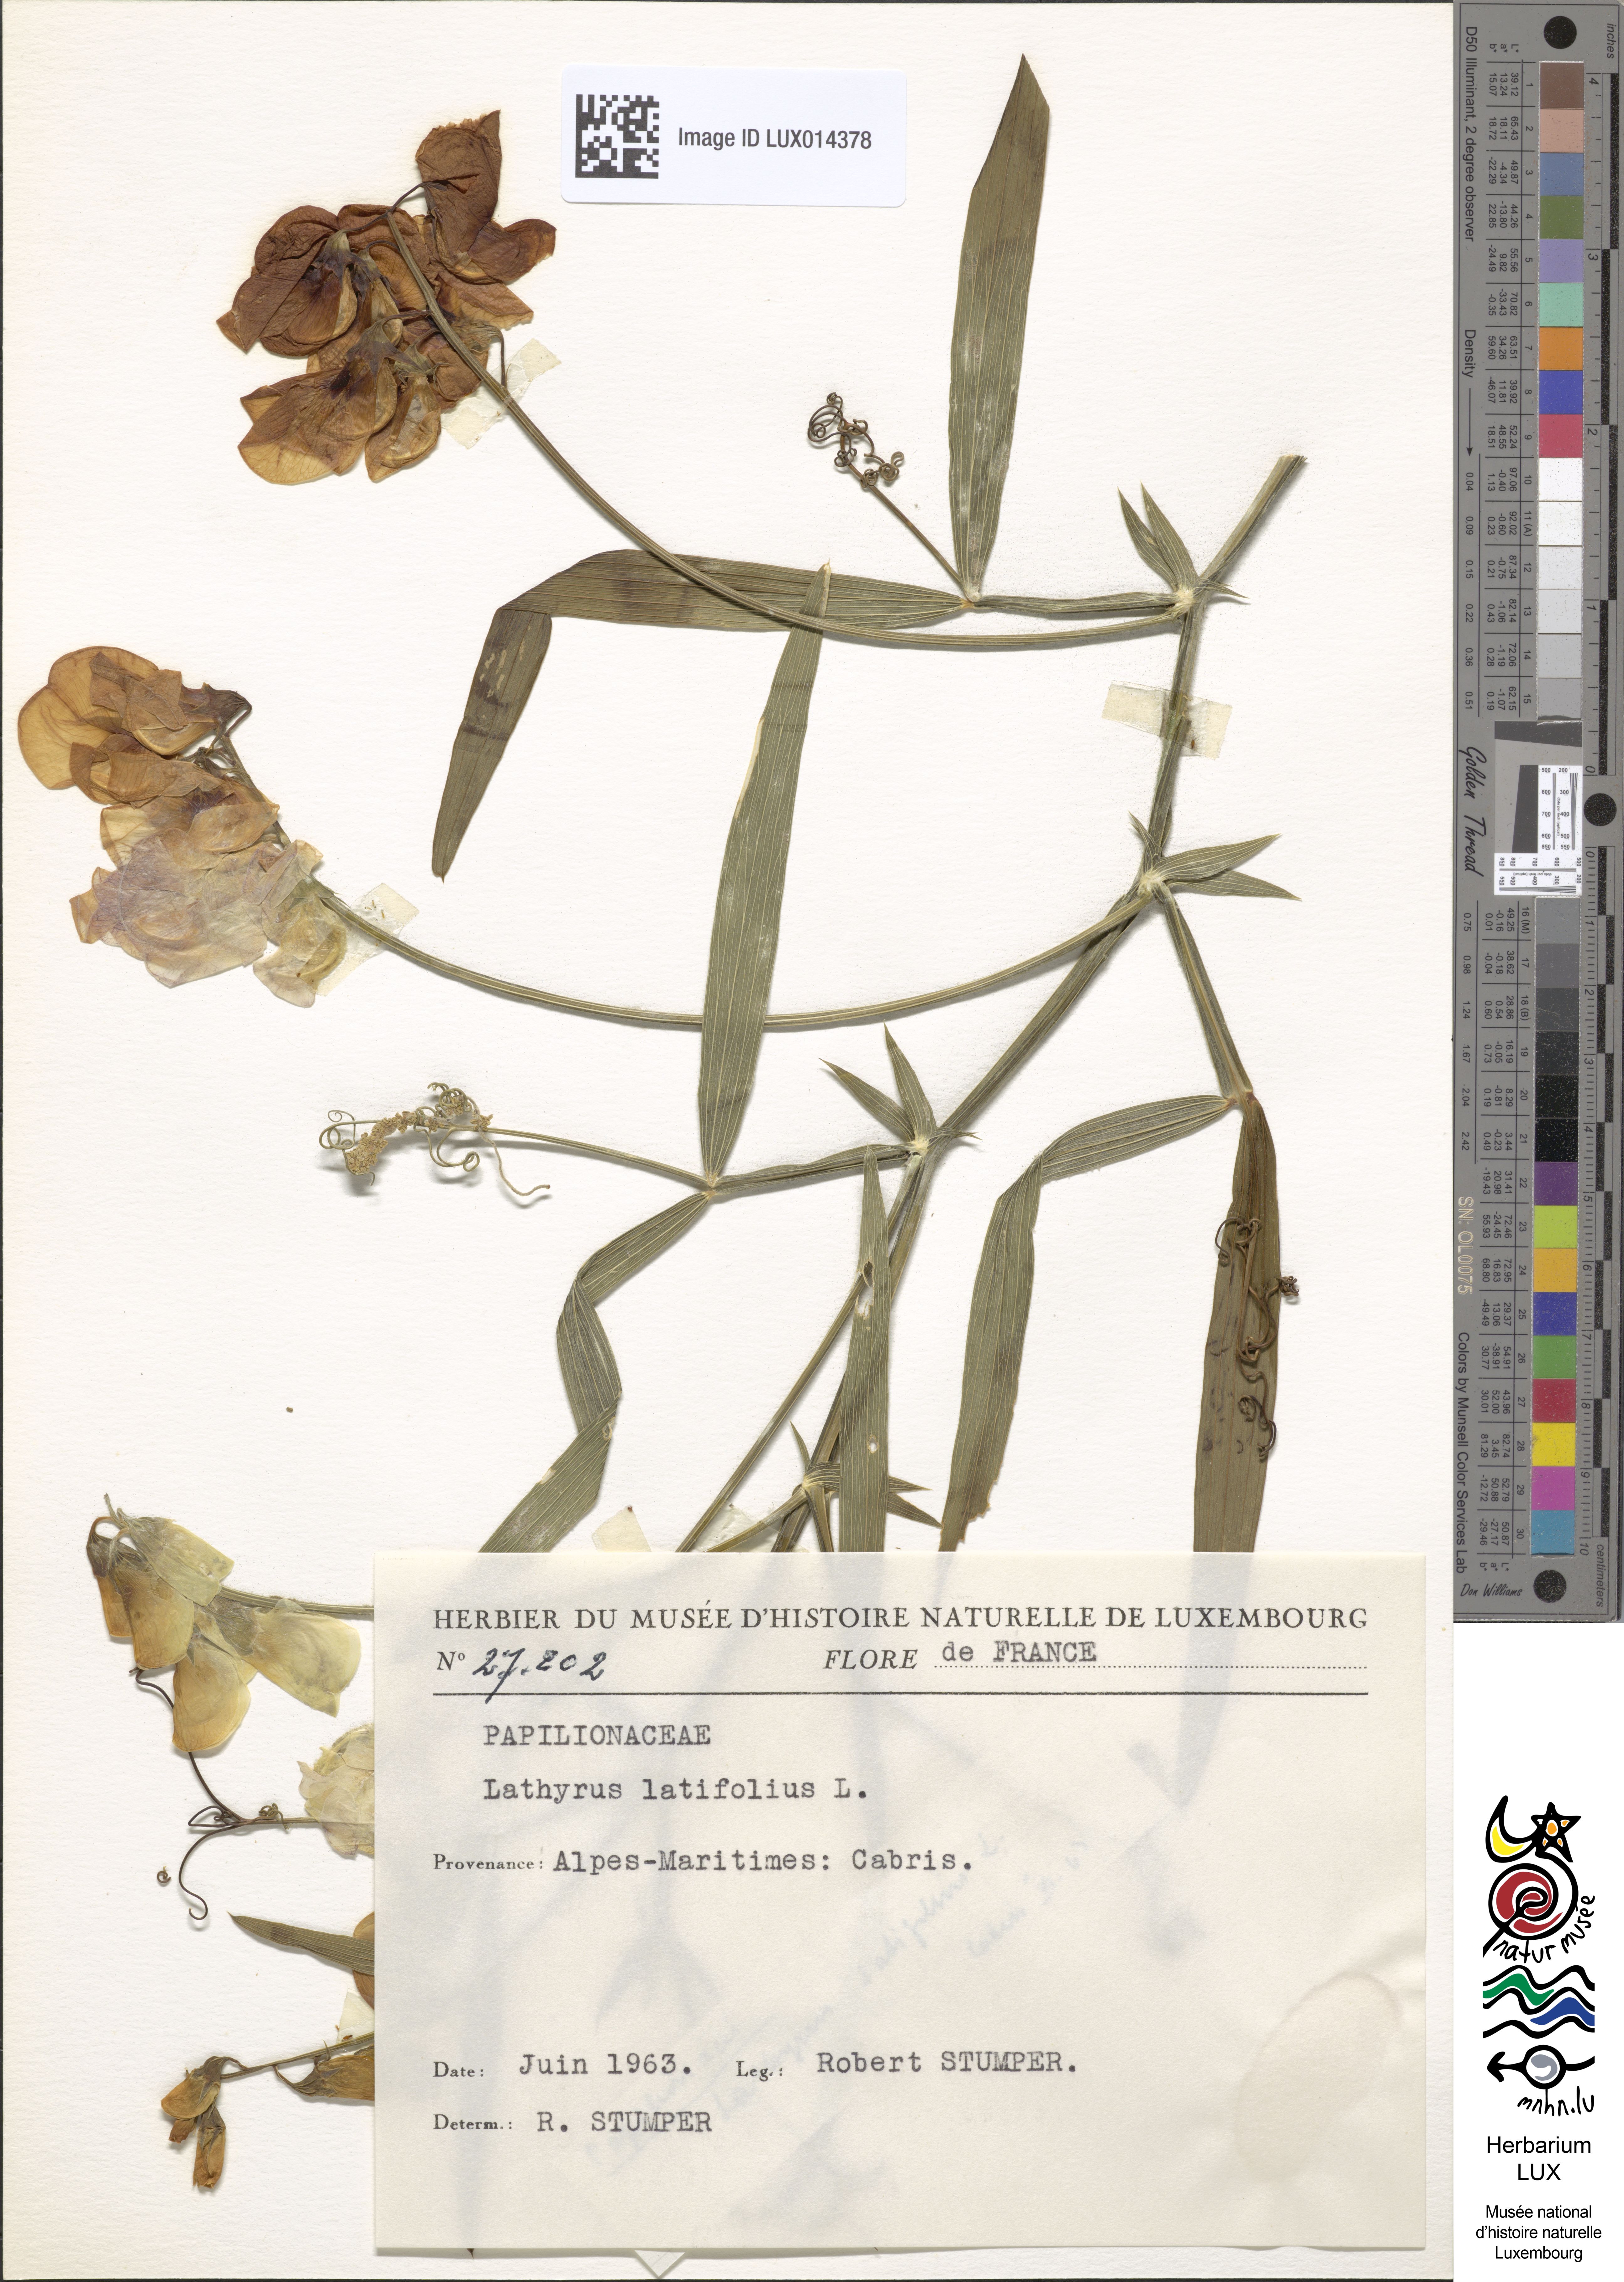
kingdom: Plantae
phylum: Tracheophyta
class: Magnoliopsida
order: Fabales
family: Fabaceae
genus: Lathyrus
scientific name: Lathyrus latifolius
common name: Perennial pea
